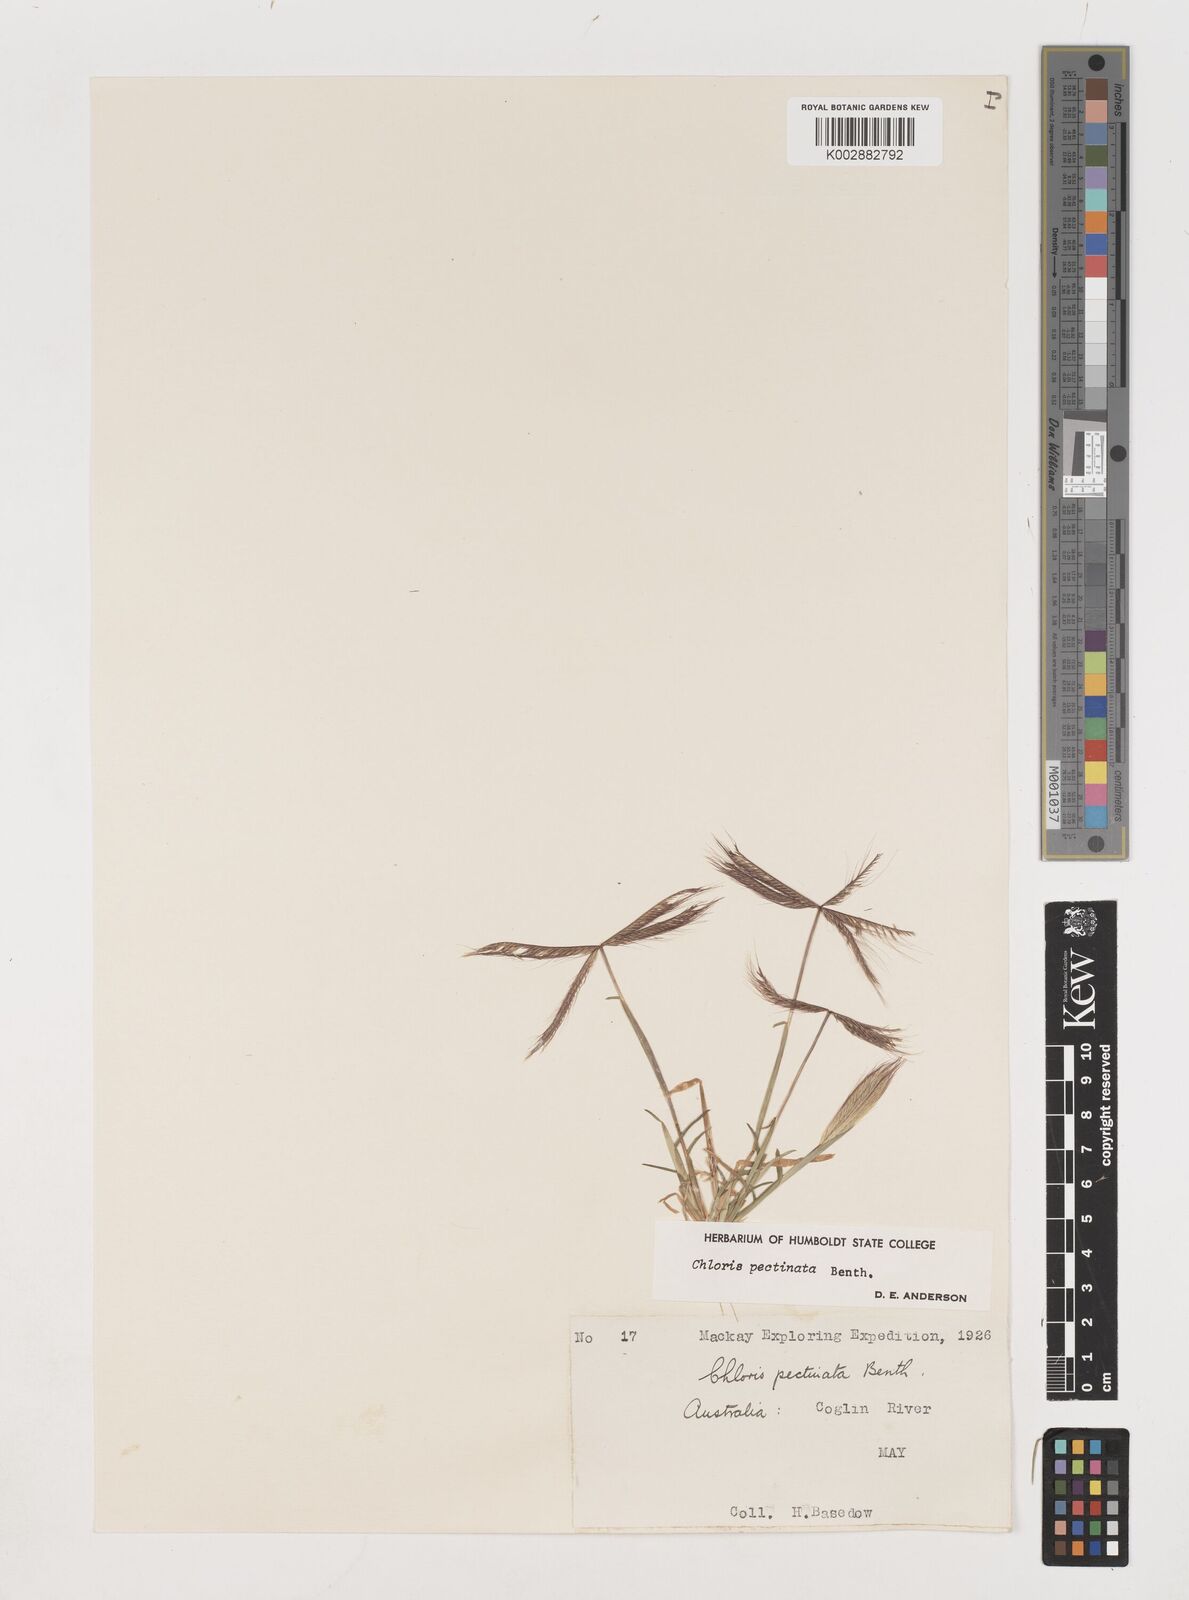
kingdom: Plantae
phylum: Tracheophyta
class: Liliopsida
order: Poales
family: Poaceae
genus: Chloris
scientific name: Chloris pectinata
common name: Comb windmill grass
